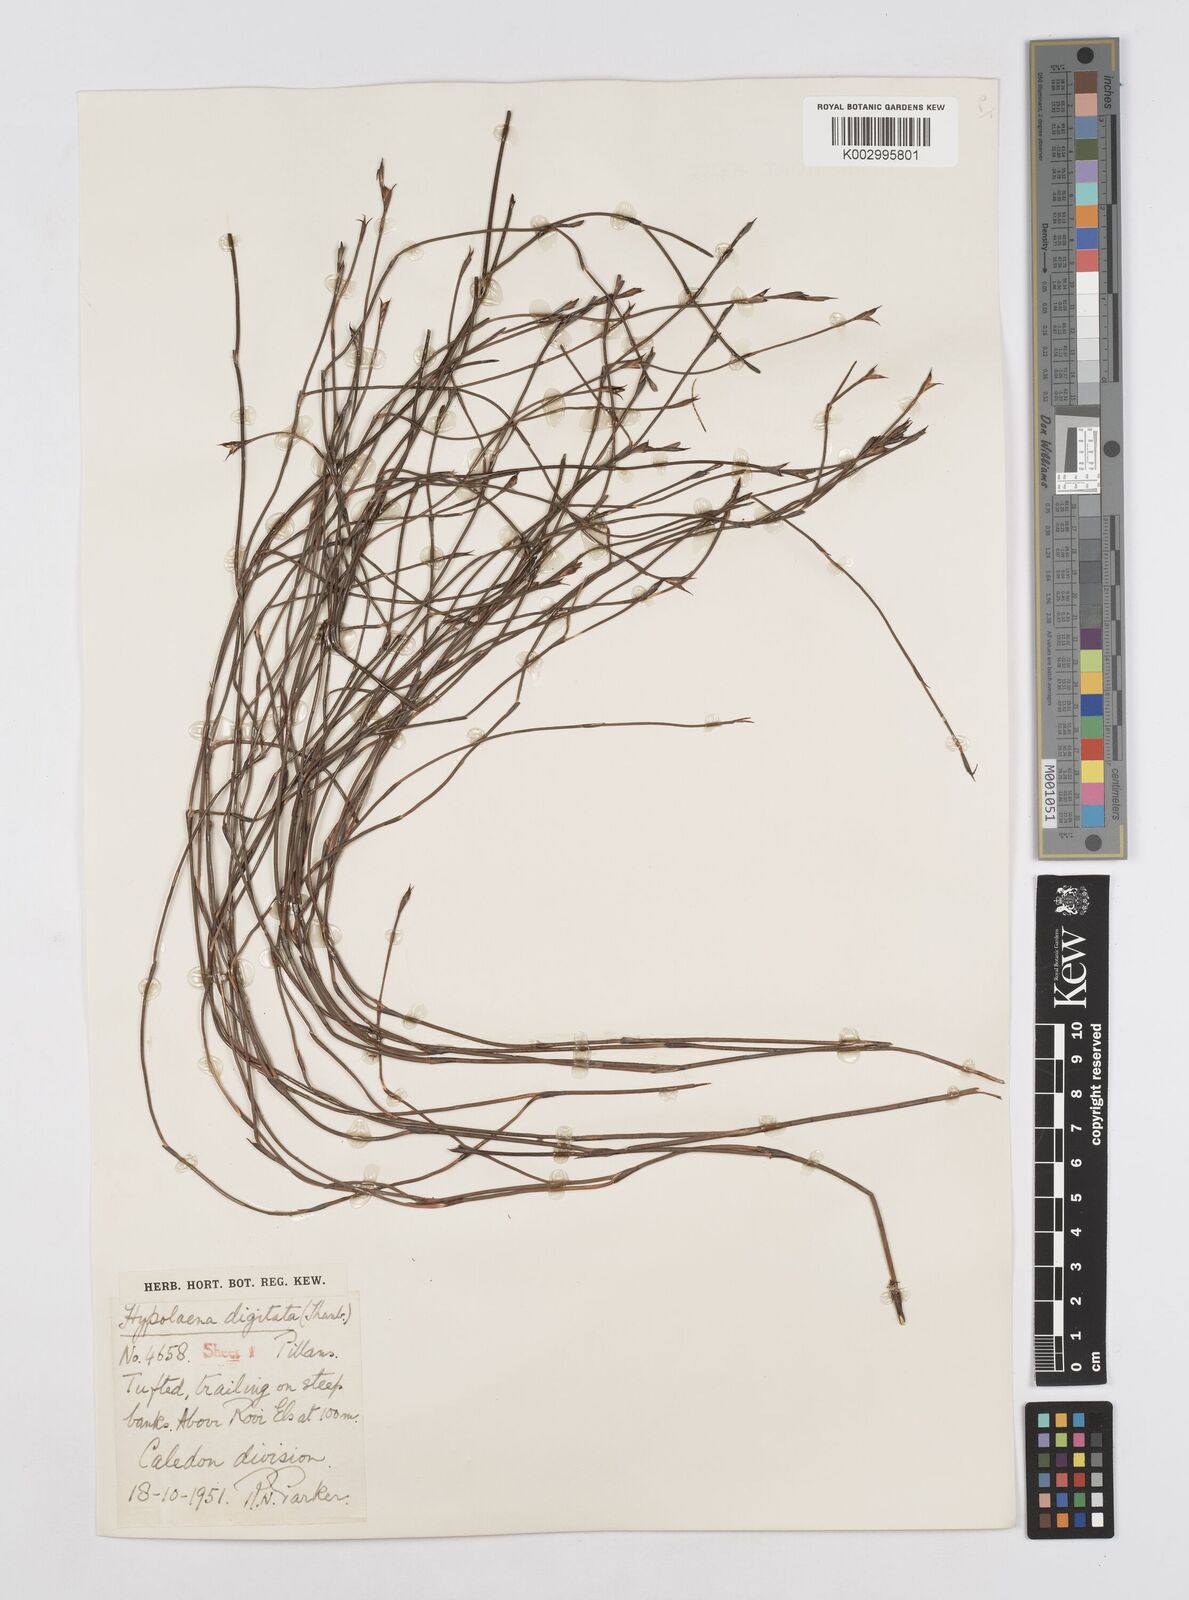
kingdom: Plantae
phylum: Tracheophyta
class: Liliopsida
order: Poales
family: Restionaceae
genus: Mastersiella
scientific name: Mastersiella digitata
